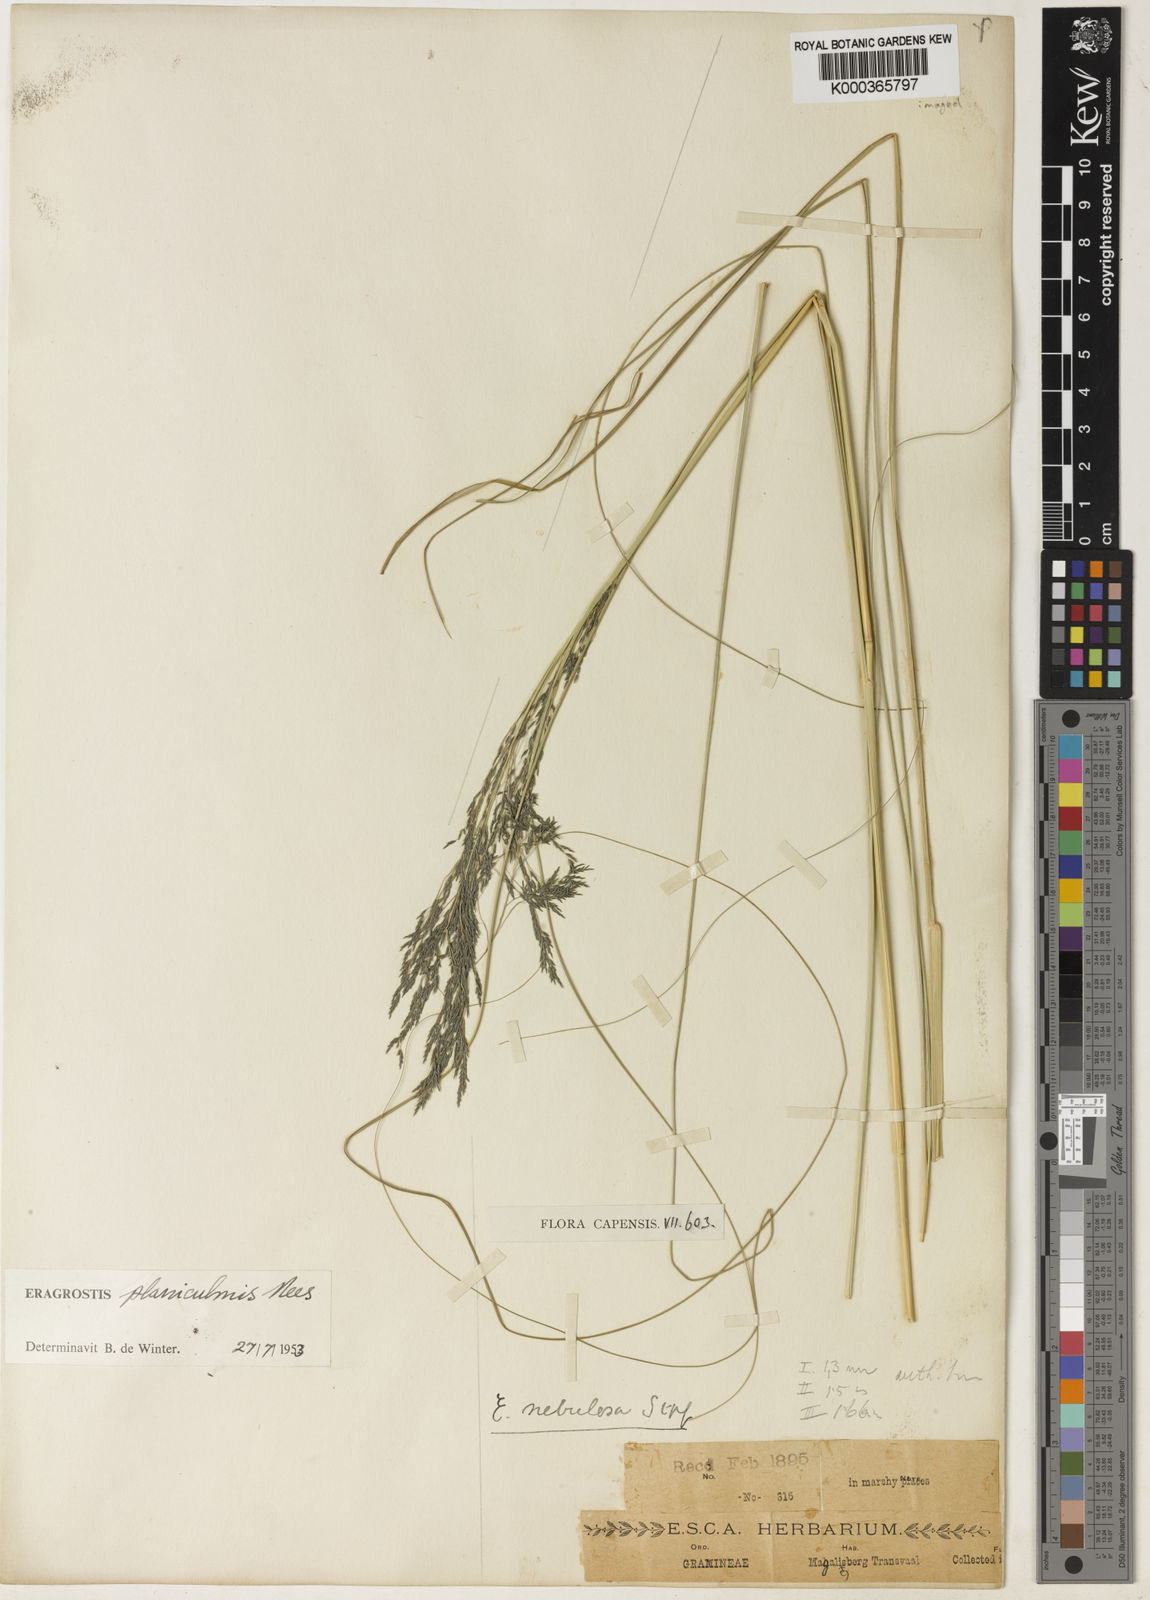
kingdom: Plantae
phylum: Tracheophyta
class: Liliopsida
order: Poales
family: Poaceae
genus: Eragrostis
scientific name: Eragrostis planiculmis
